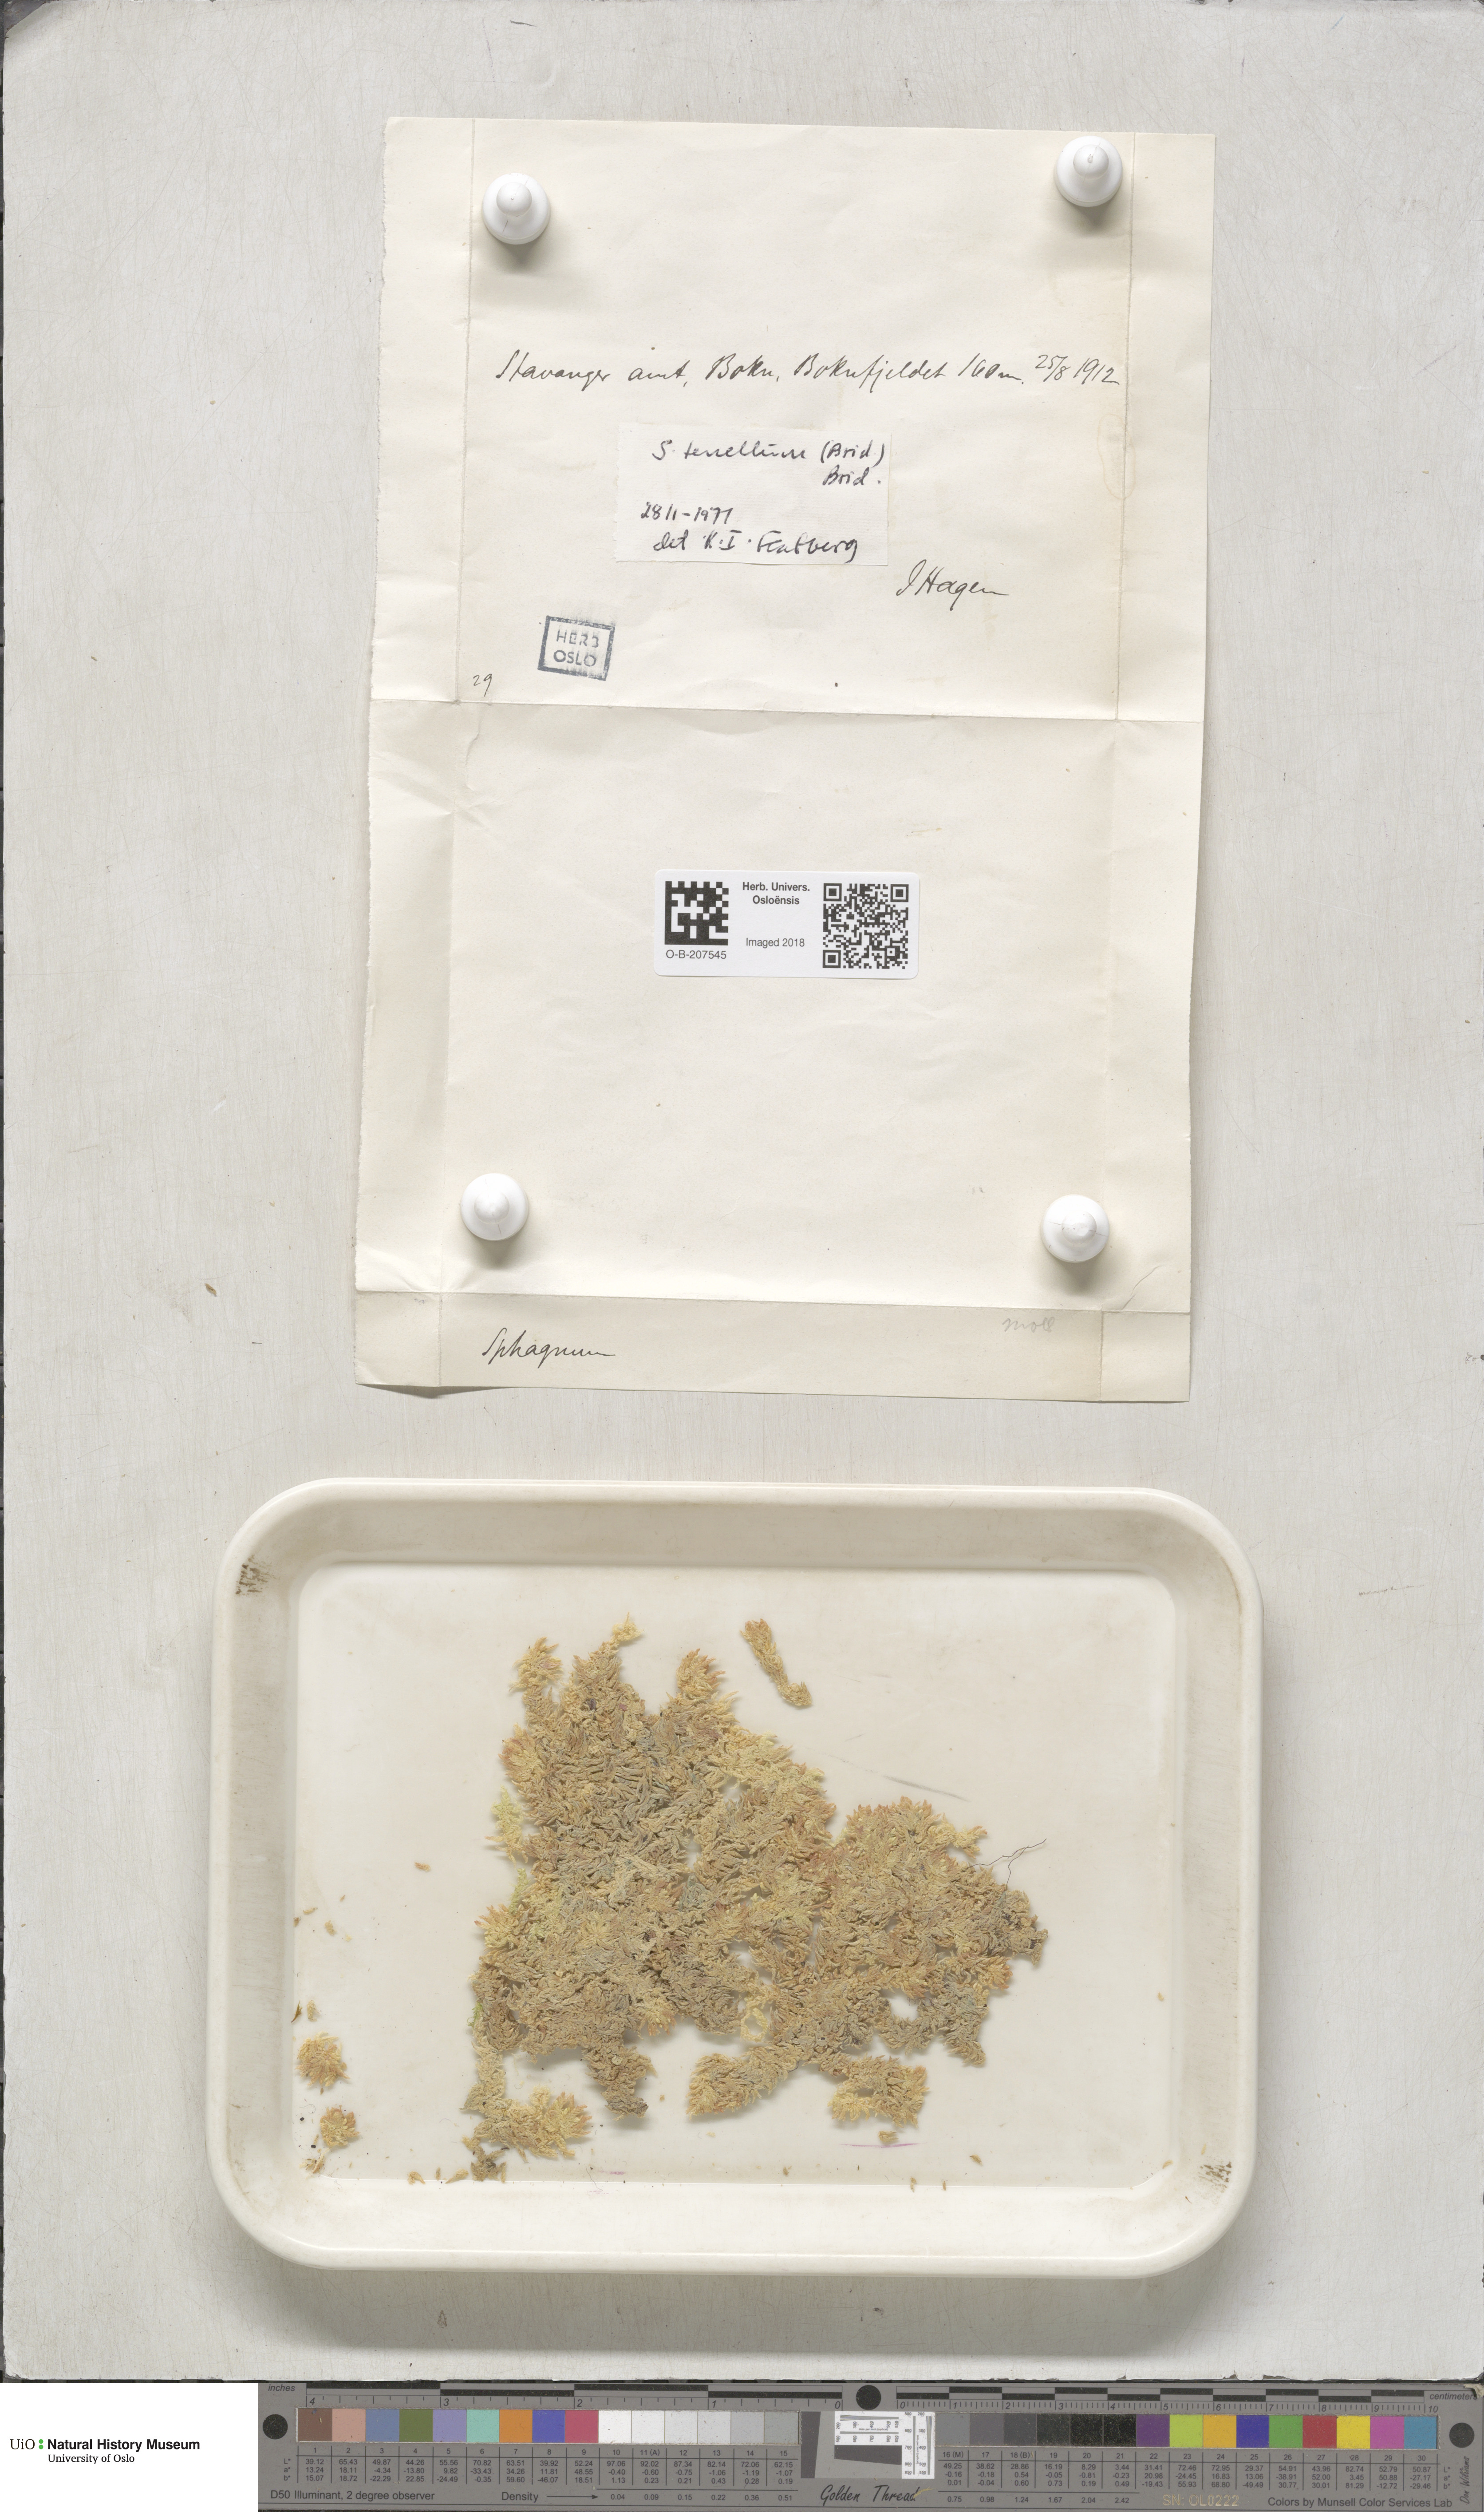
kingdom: Plantae
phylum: Bryophyta
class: Sphagnopsida
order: Sphagnales
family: Sphagnaceae
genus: Sphagnum
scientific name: Sphagnum tenellum
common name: Soft bog-moss
